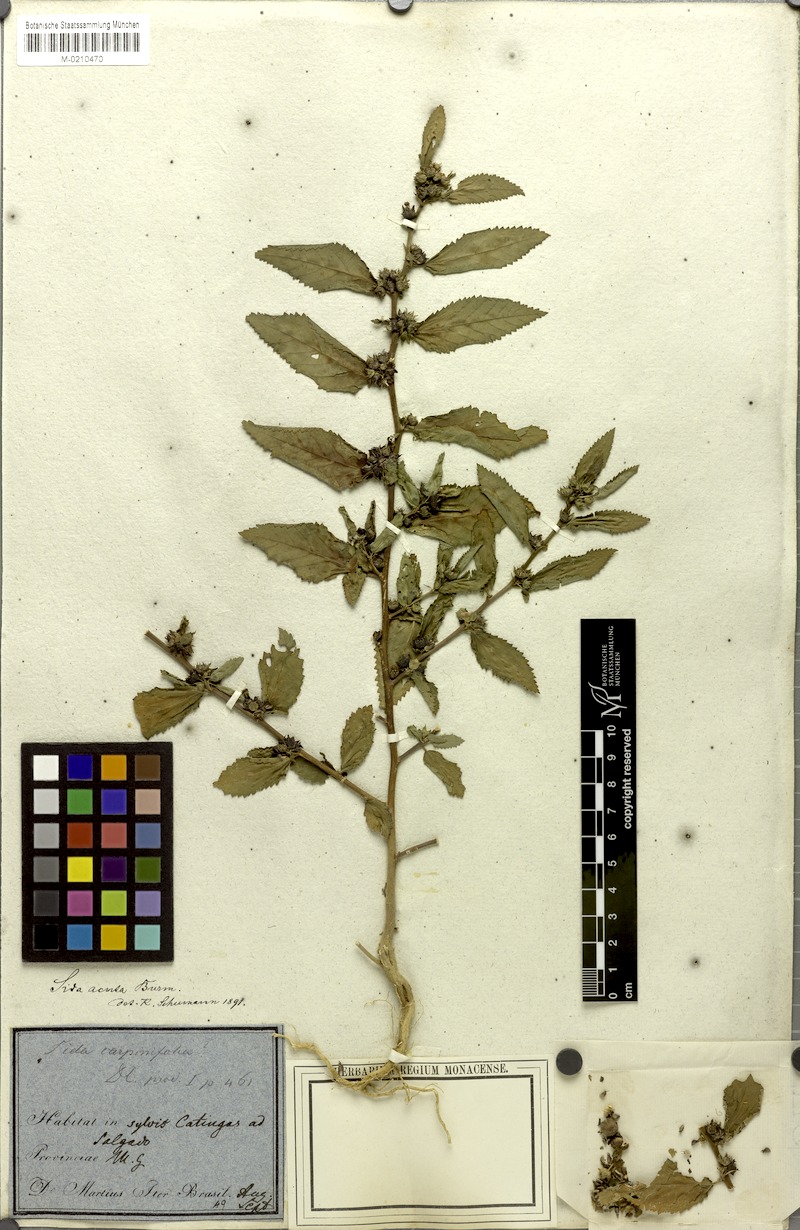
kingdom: Plantae
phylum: Tracheophyta
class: Magnoliopsida
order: Malvales
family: Malvaceae
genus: Sida
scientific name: Sida acuta
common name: Common wireweed
